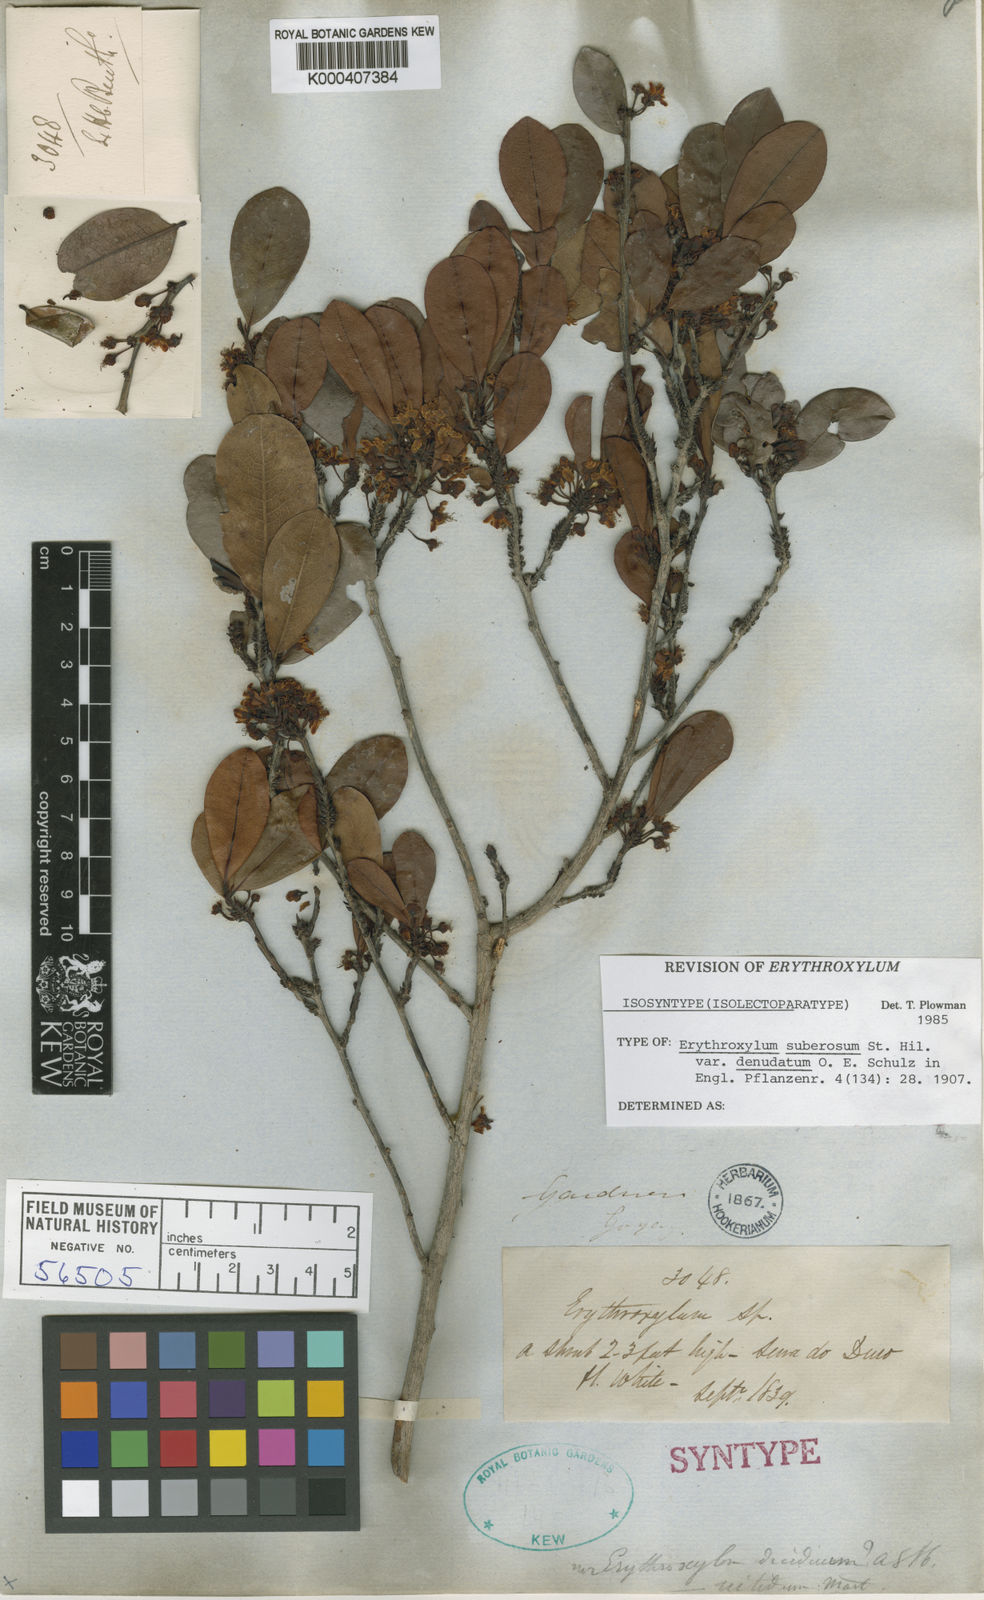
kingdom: Plantae
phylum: Tracheophyta
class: Magnoliopsida
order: Malpighiales
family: Erythroxylaceae
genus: Erythroxylum
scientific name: Erythroxylum rimosum
